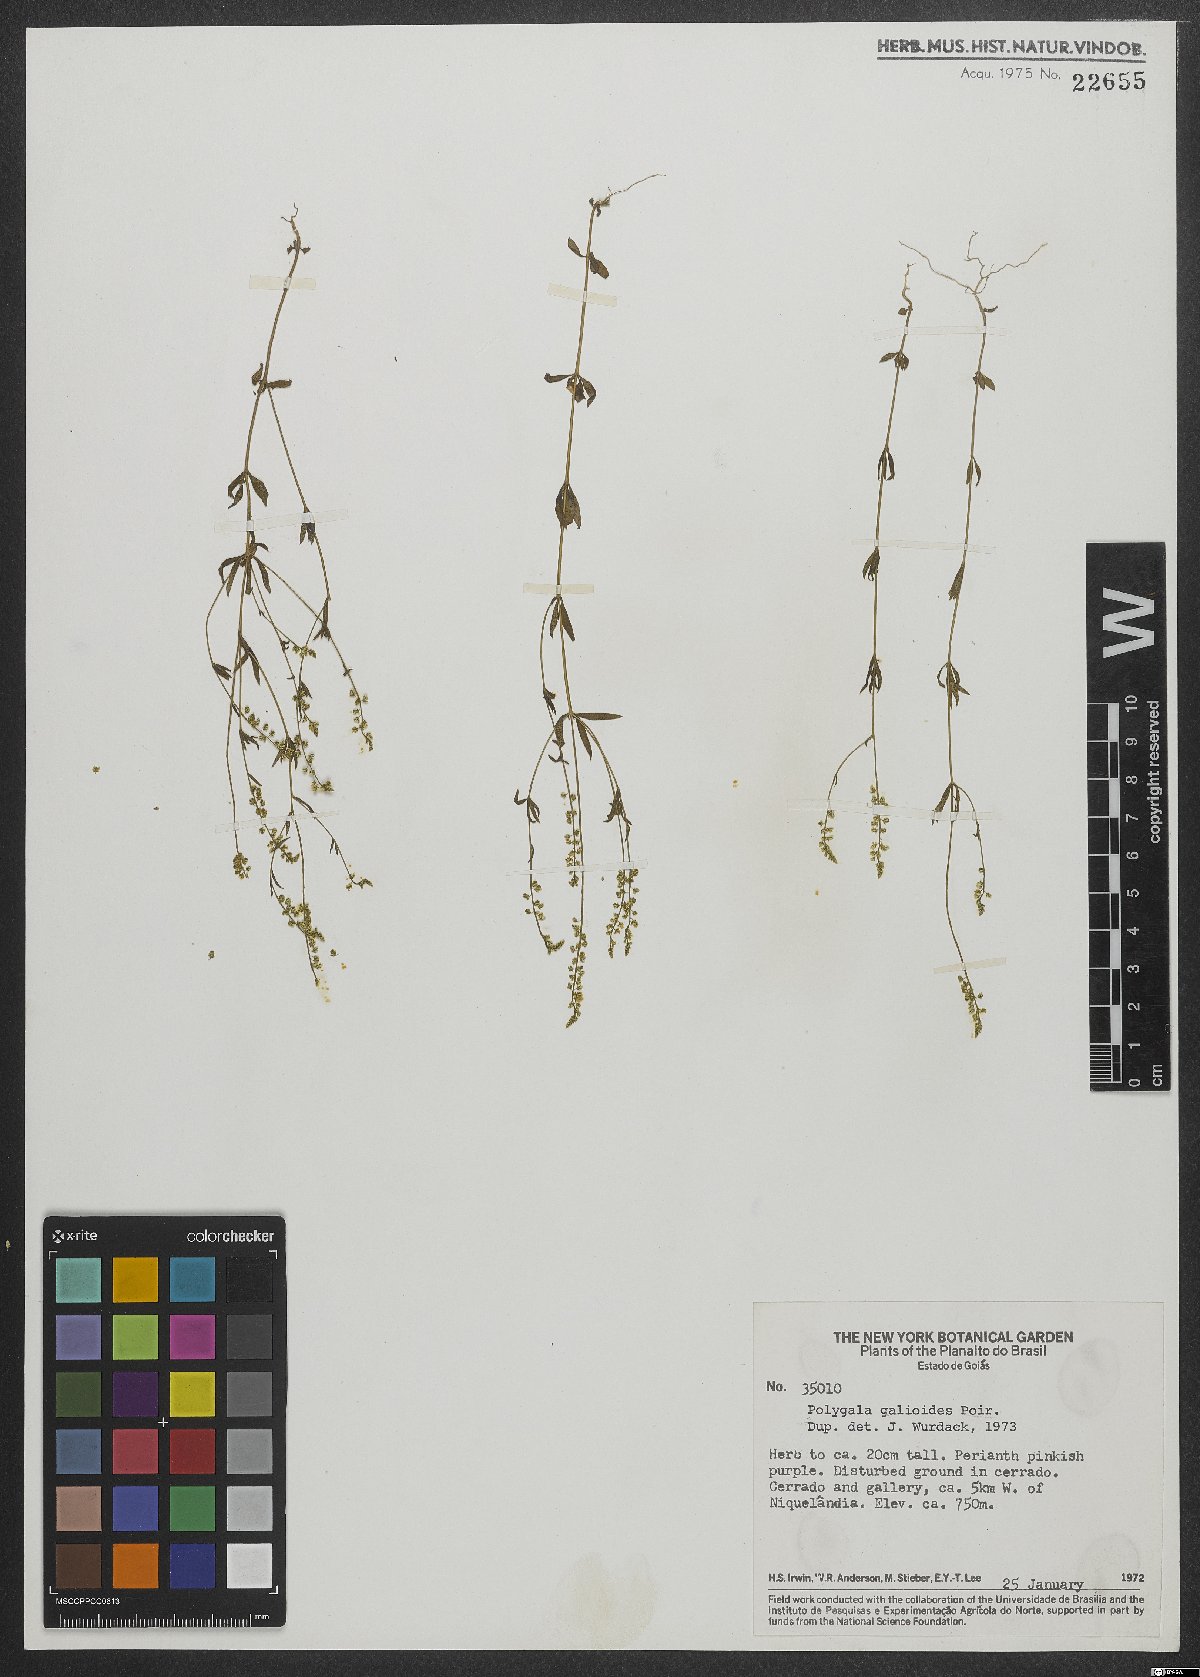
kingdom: Plantae
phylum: Tracheophyta
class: Magnoliopsida
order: Fabales
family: Polygalaceae
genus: Polygala
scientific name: Polygala galioides
